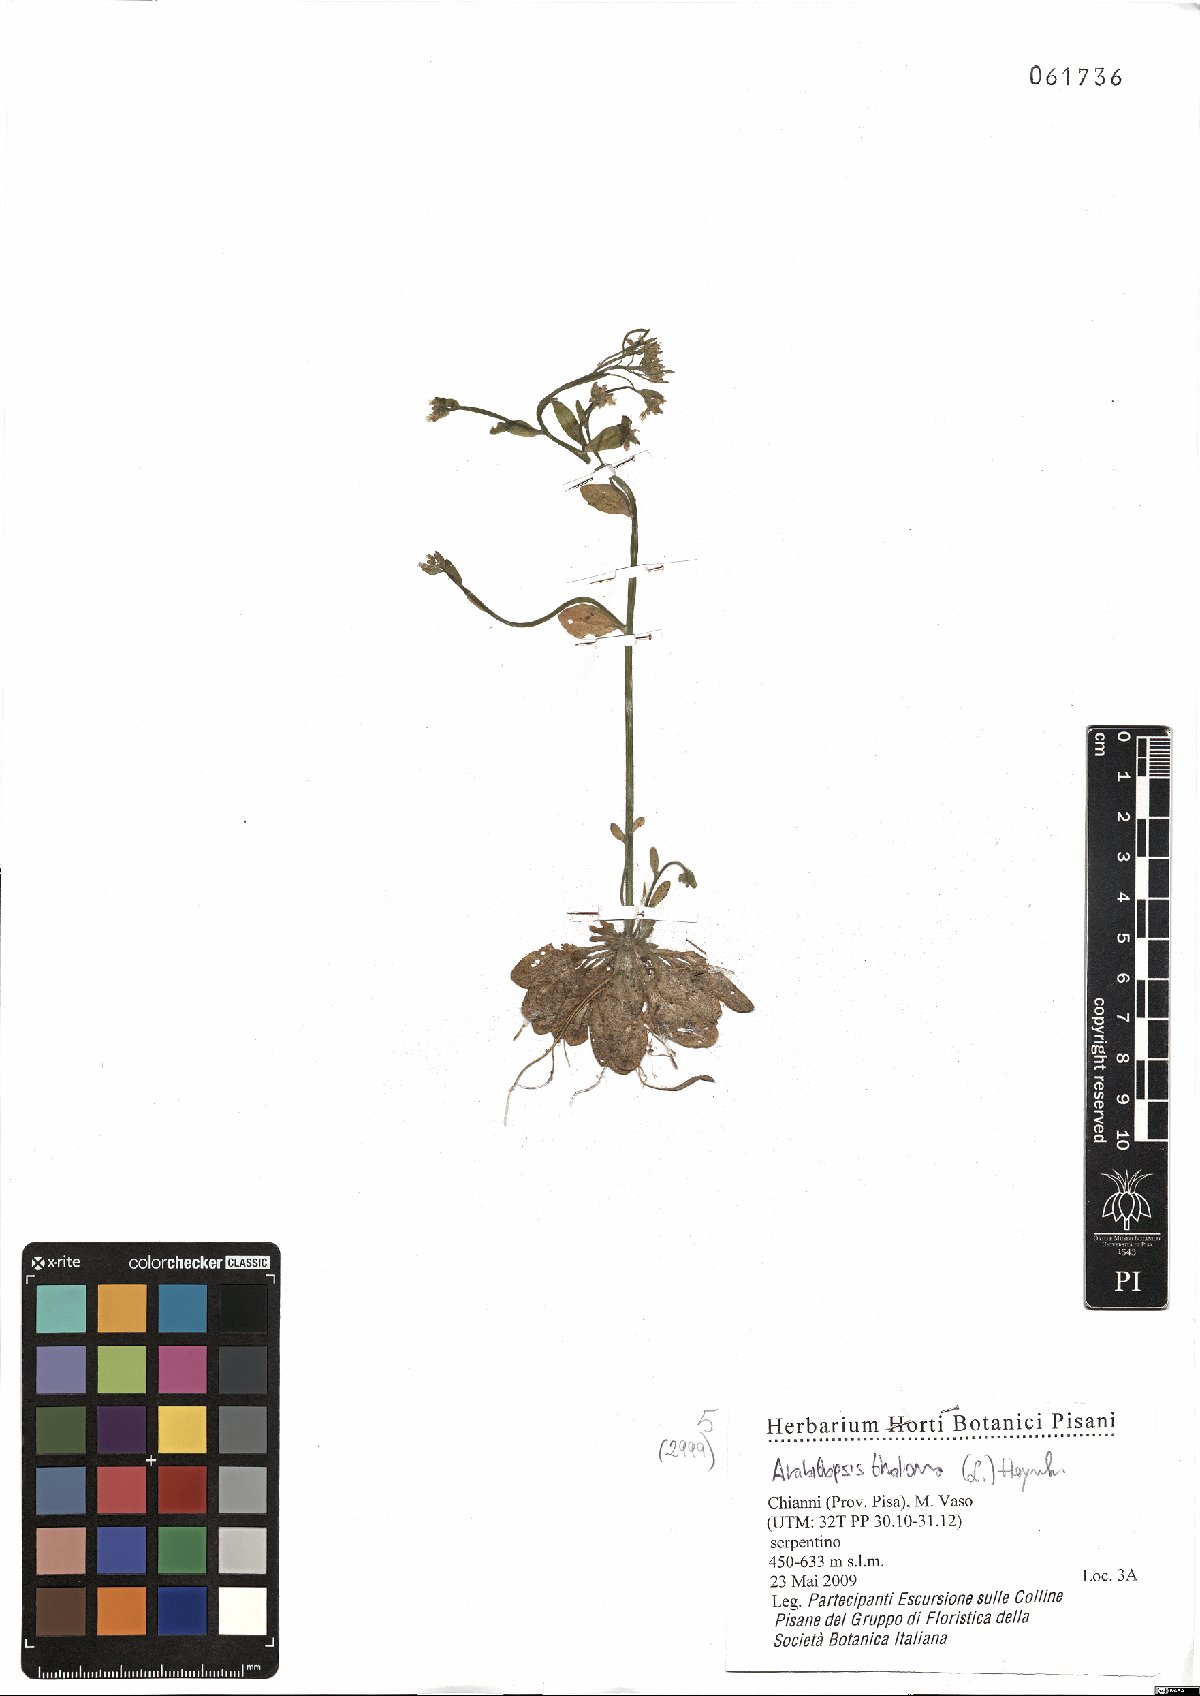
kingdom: Plantae
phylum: Tracheophyta
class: Magnoliopsida
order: Brassicales
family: Brassicaceae
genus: Arabidopsis
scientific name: Arabidopsis thaliana
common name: Thale cress
